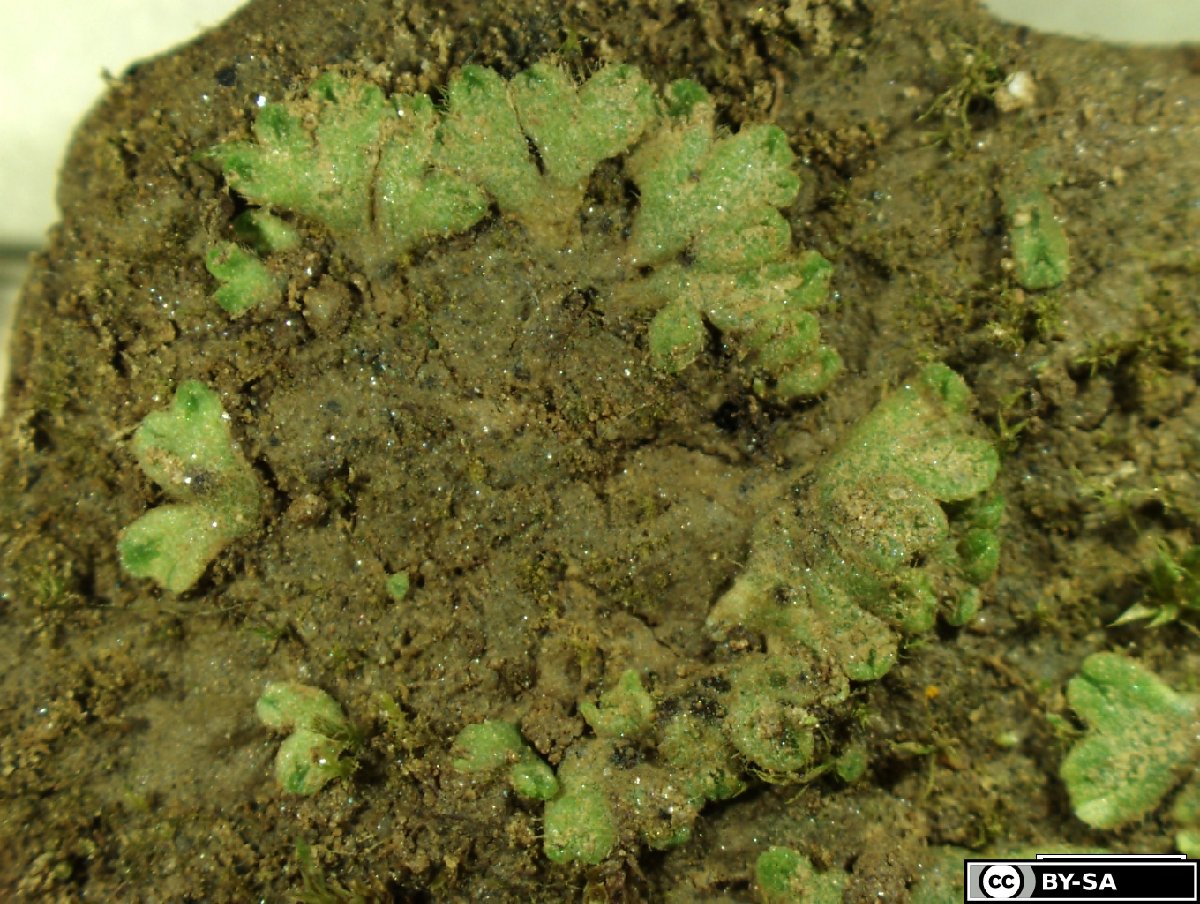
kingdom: Plantae
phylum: Marchantiophyta
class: Marchantiopsida
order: Marchantiales
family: Ricciaceae
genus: Riccia
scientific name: Riccia glauca
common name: Glaucous crystalwort
